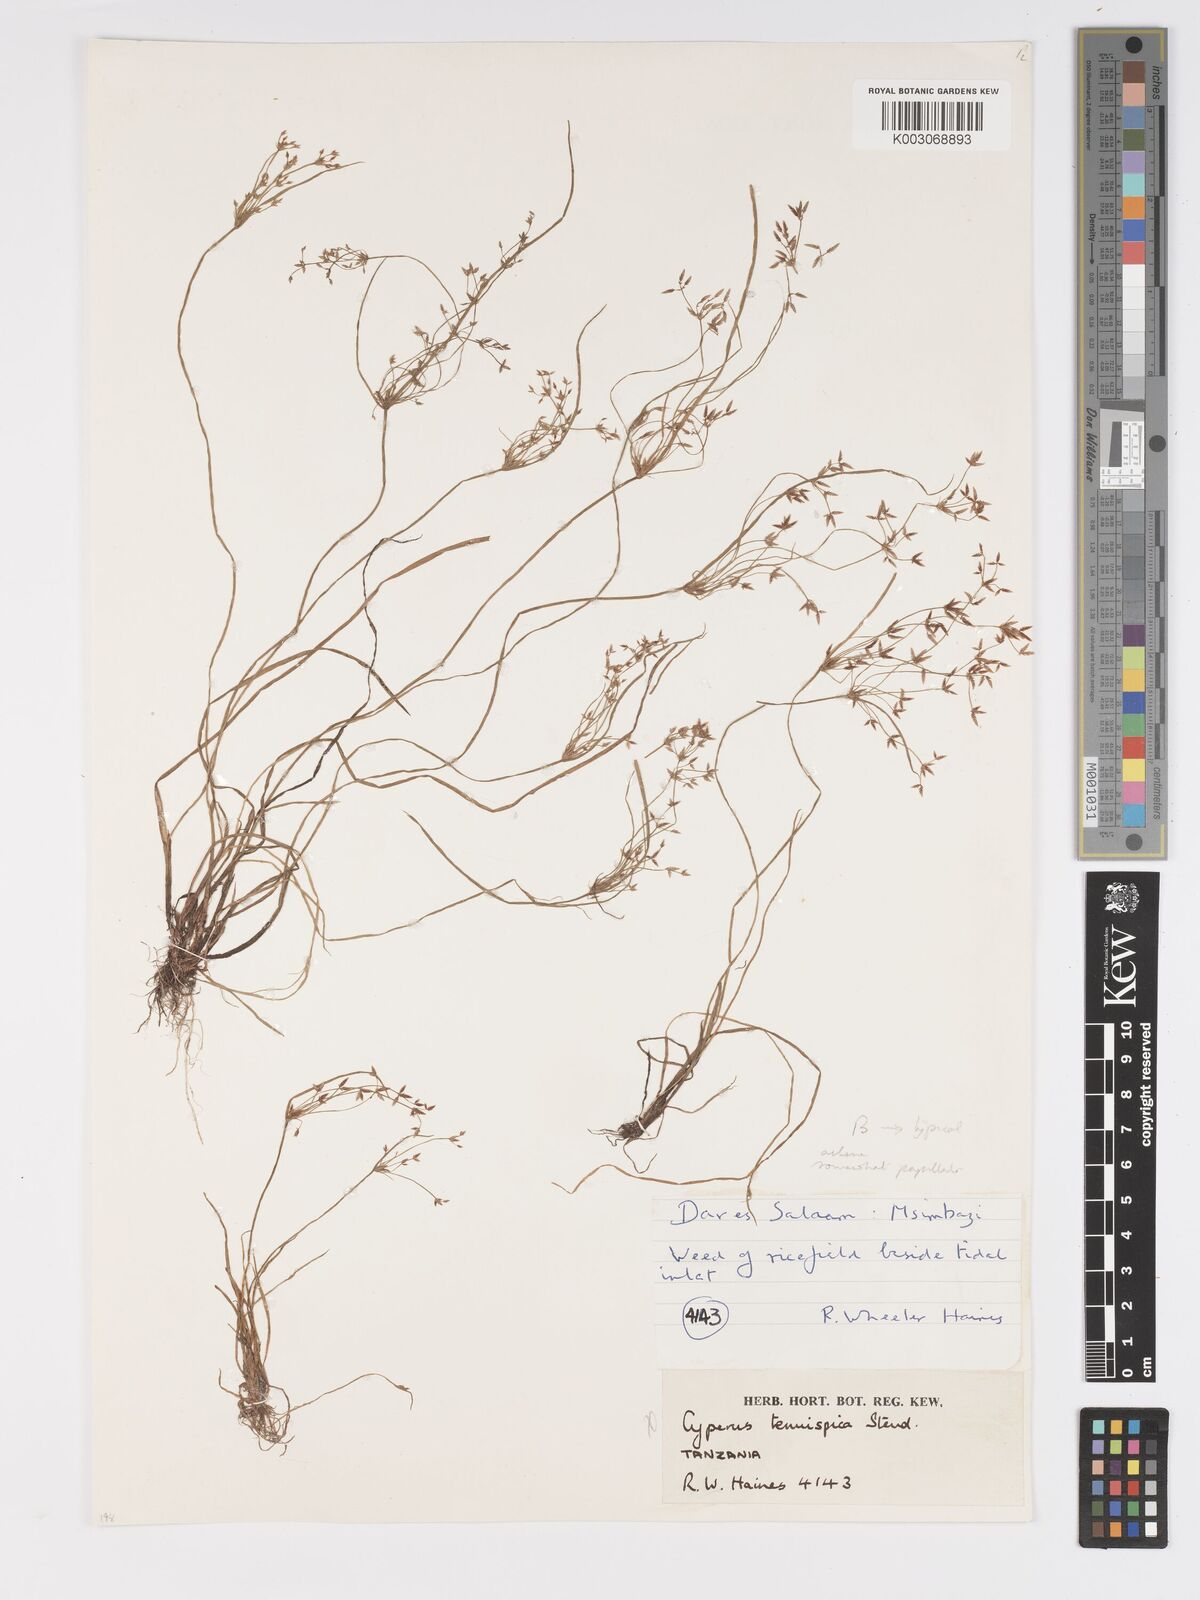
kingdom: Plantae
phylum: Tracheophyta
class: Liliopsida
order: Poales
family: Cyperaceae
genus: Cyperus
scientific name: Cyperus tenuispica
